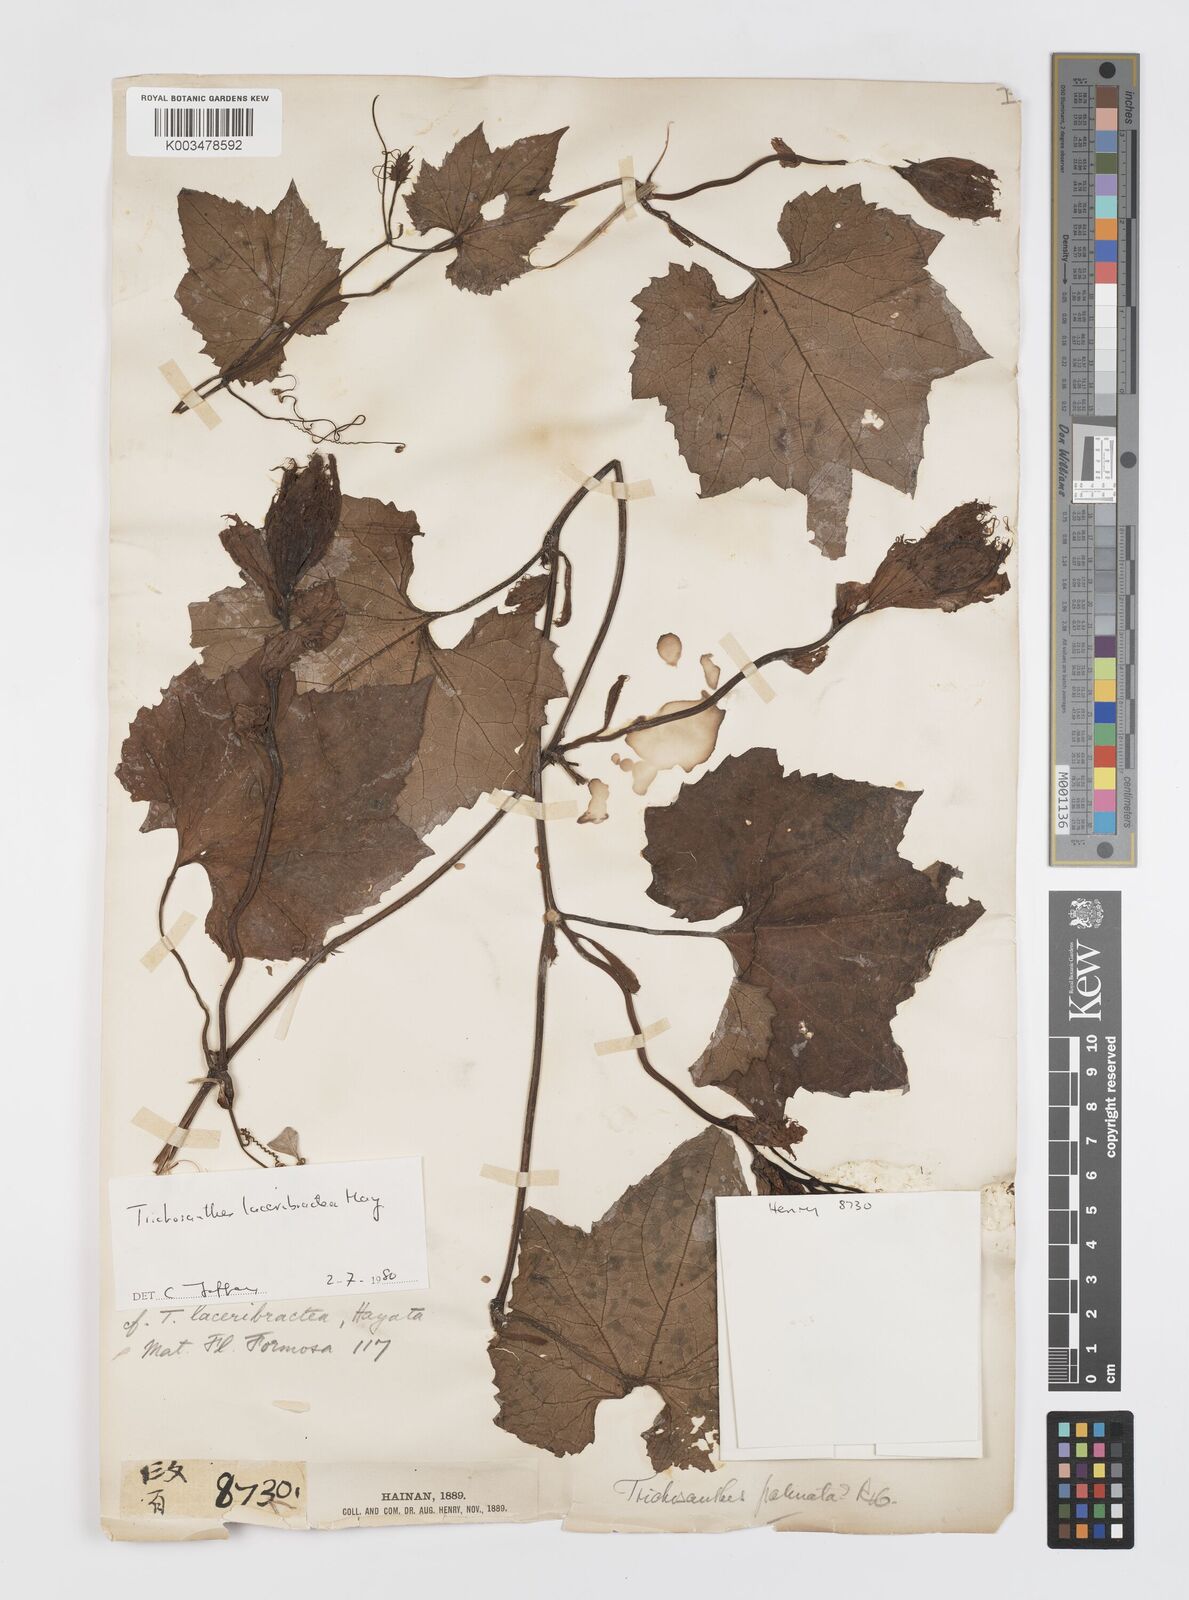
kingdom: Plantae
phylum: Tracheophyta
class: Magnoliopsida
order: Cucurbitales
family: Cucurbitaceae
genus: Trichosanthes
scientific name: Trichosanthes laceribractea
